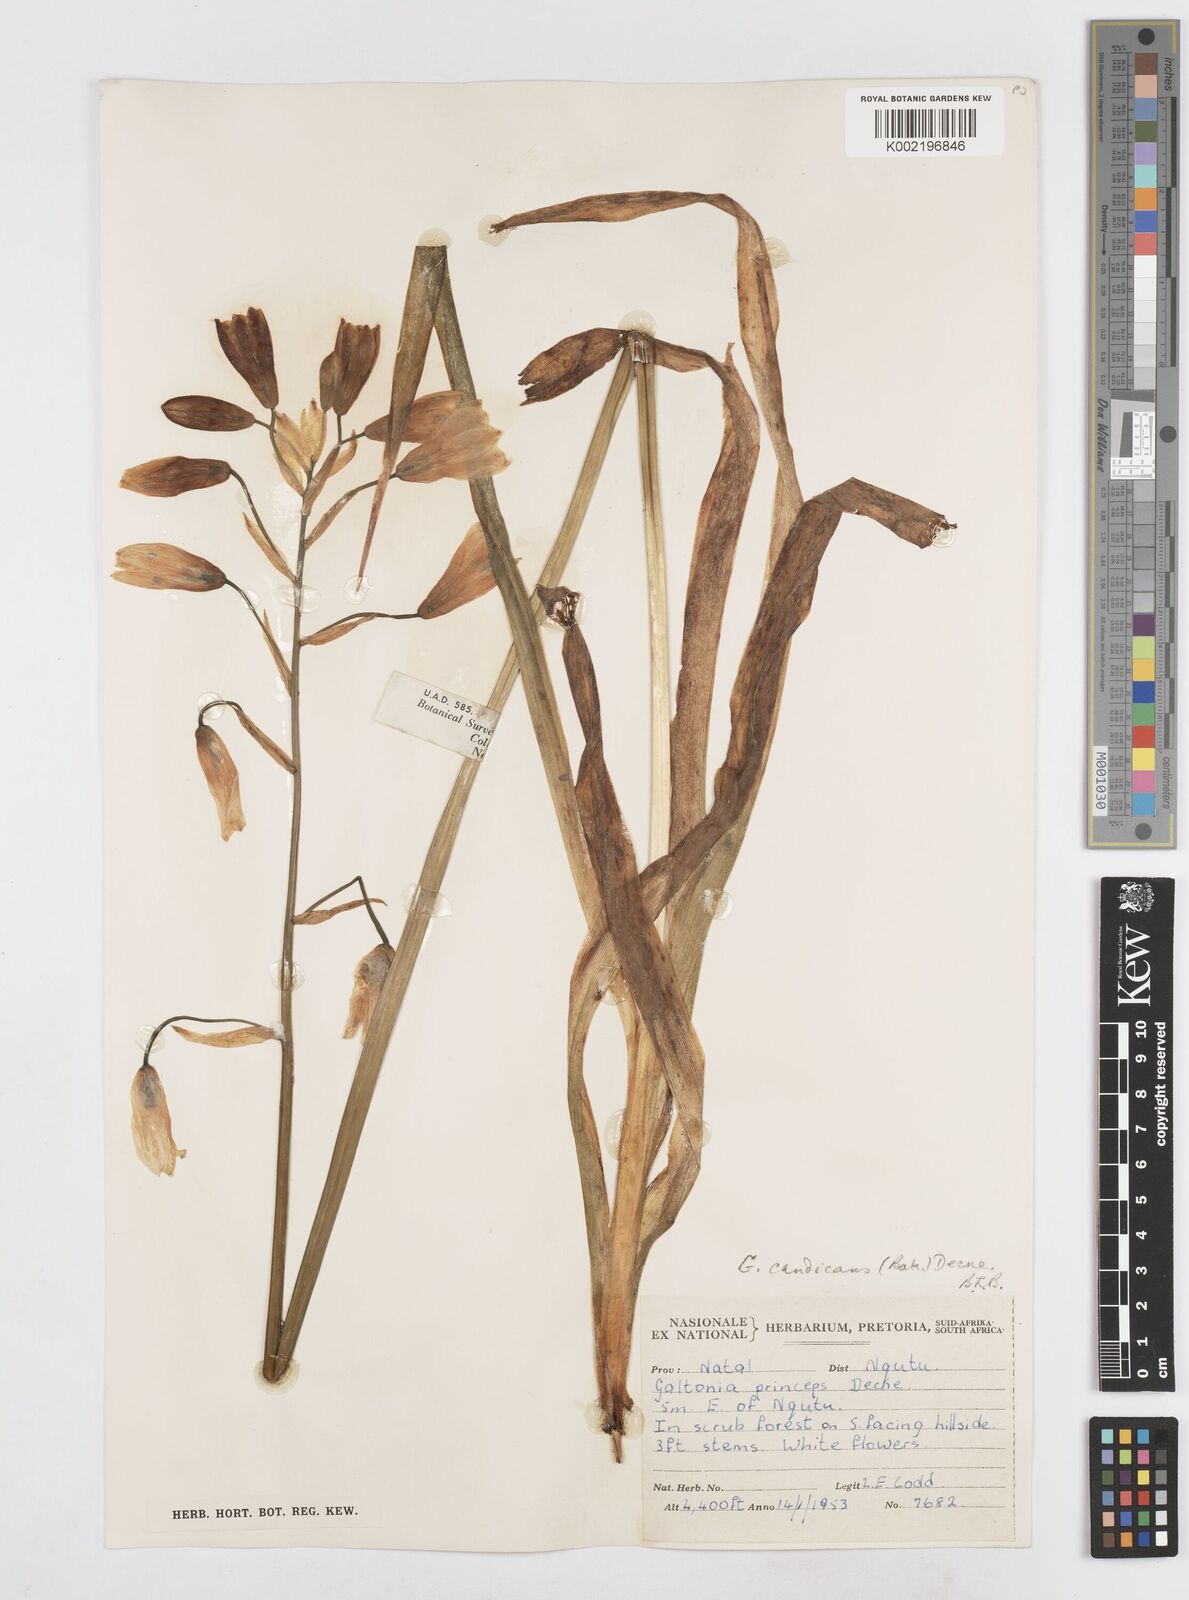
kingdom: Plantae
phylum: Tracheophyta
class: Liliopsida
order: Asparagales
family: Asparagaceae
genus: Ornithogalum
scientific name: Ornithogalum candicans
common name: Summer-hyacinth
